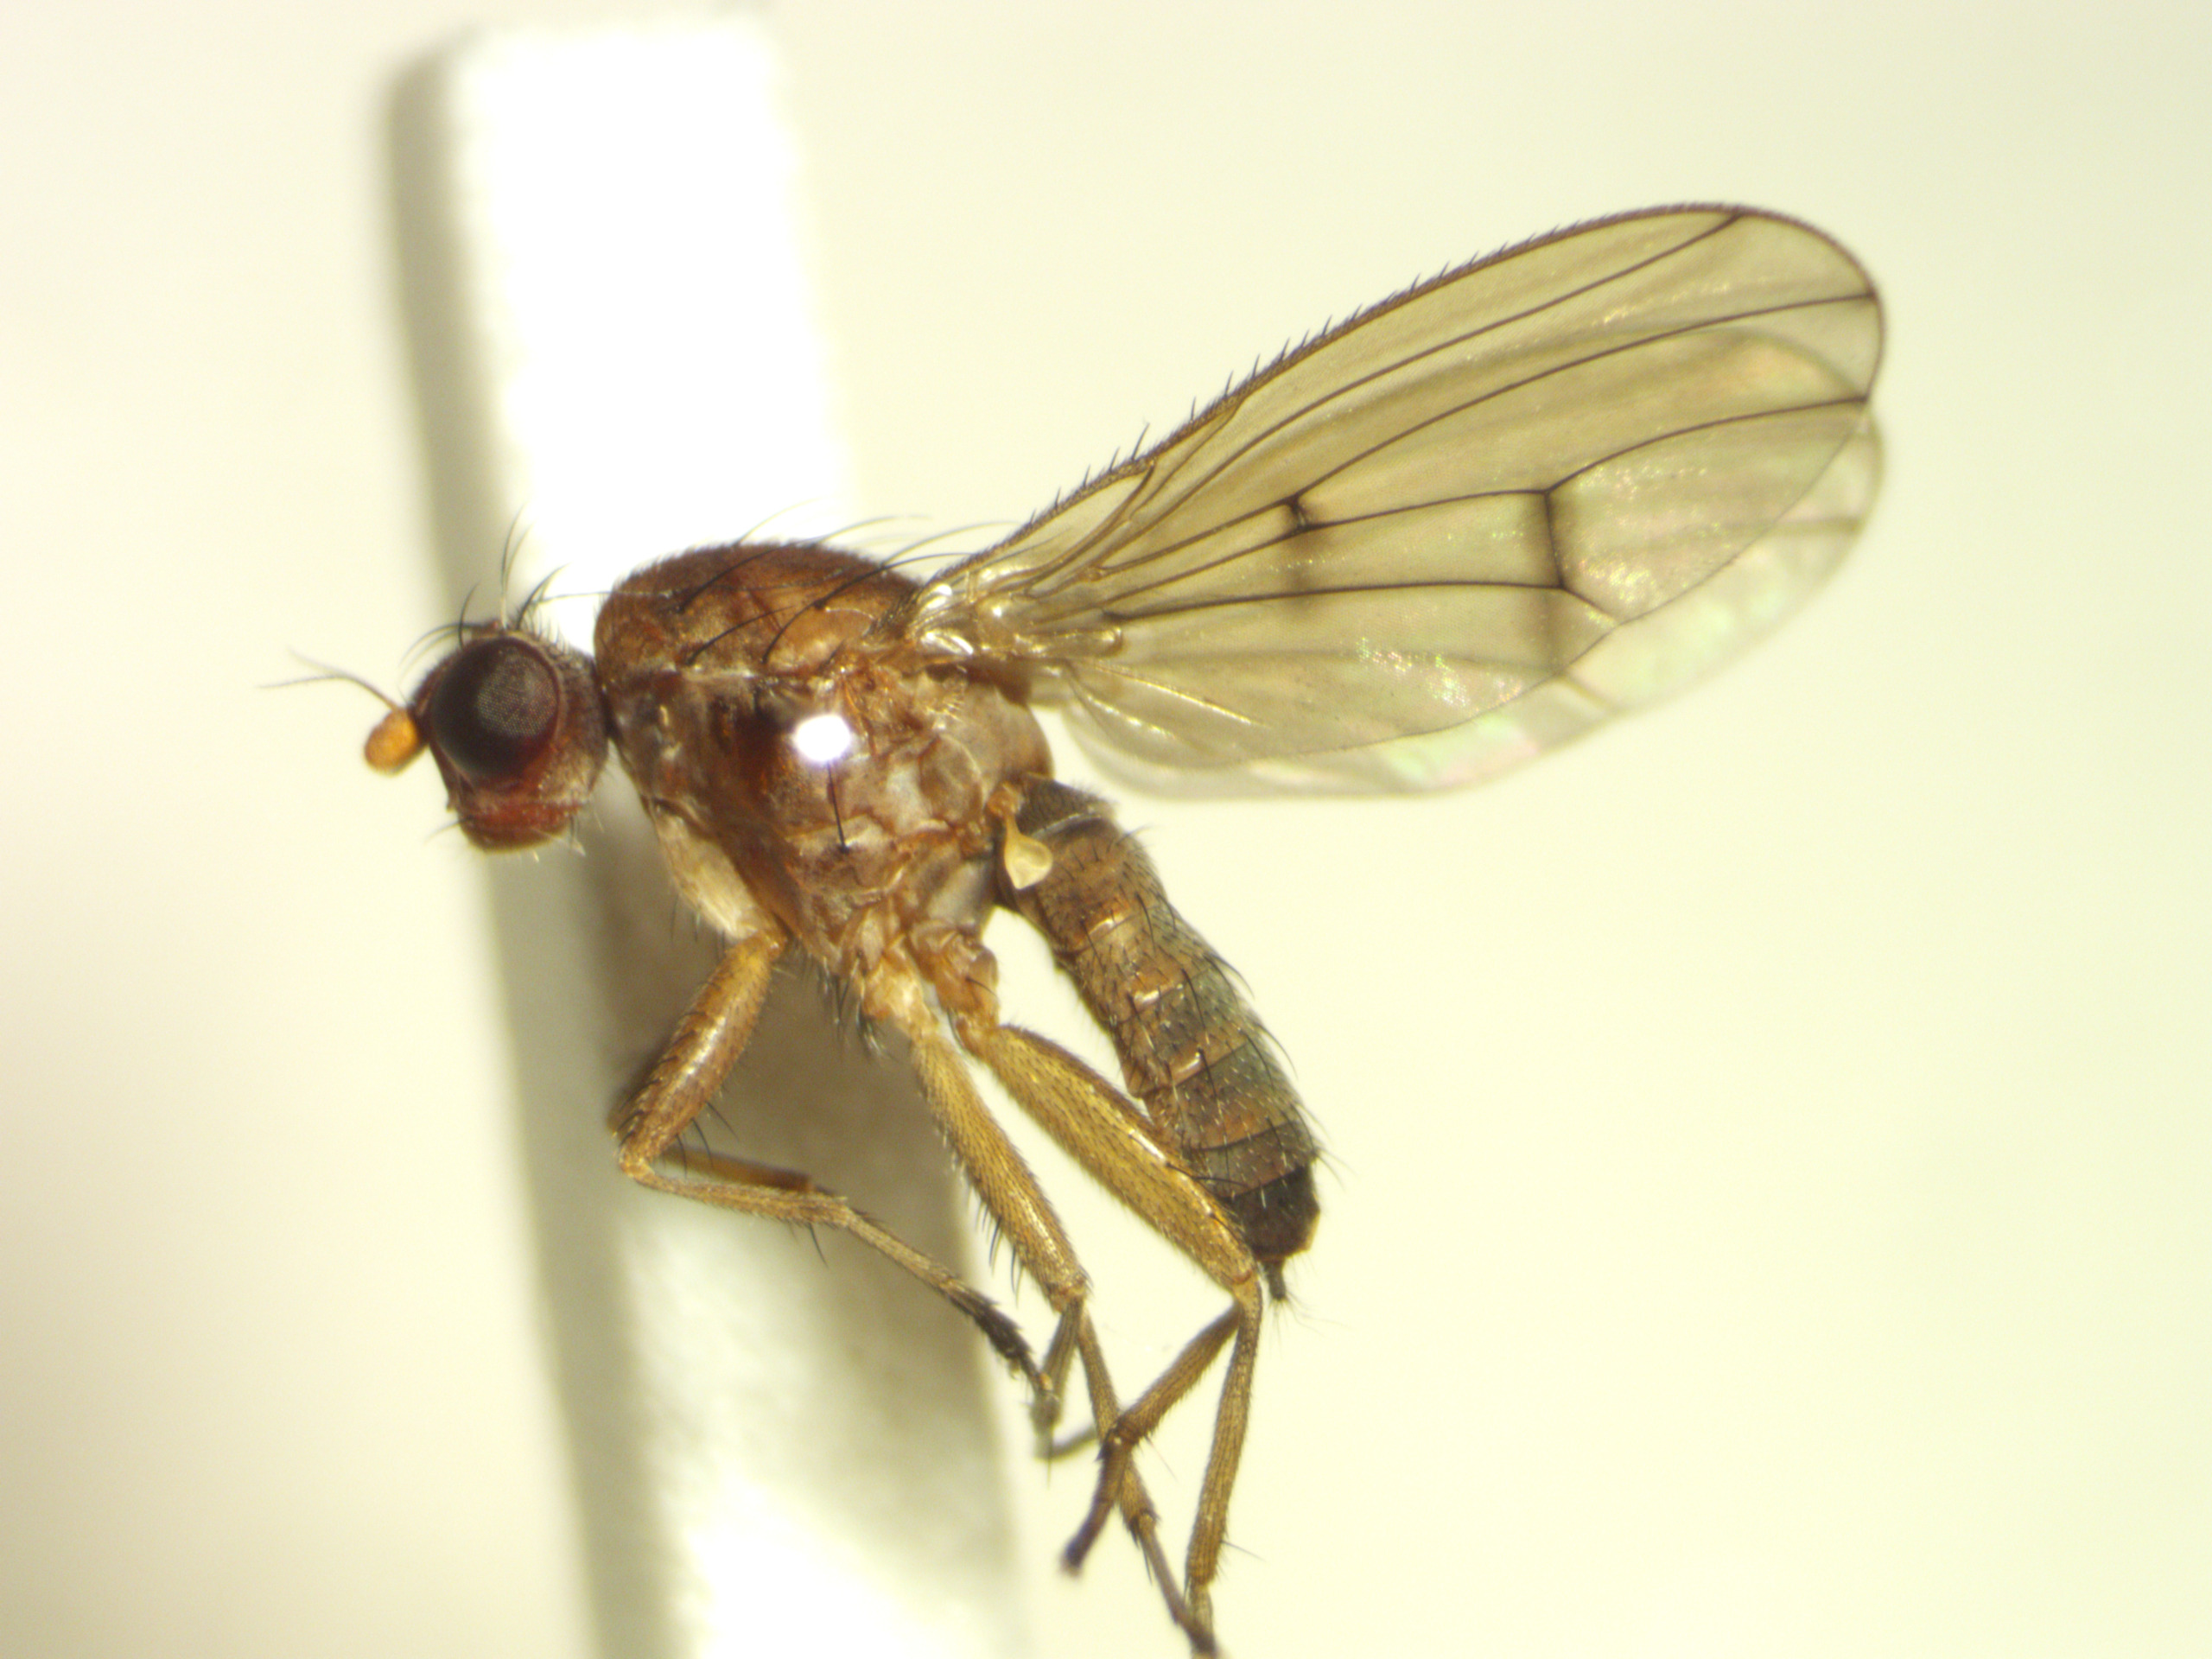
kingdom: Animalia
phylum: Arthropoda
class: Insecta
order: Diptera
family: Heleomyzidae
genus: Suillia
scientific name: Suillia notata
